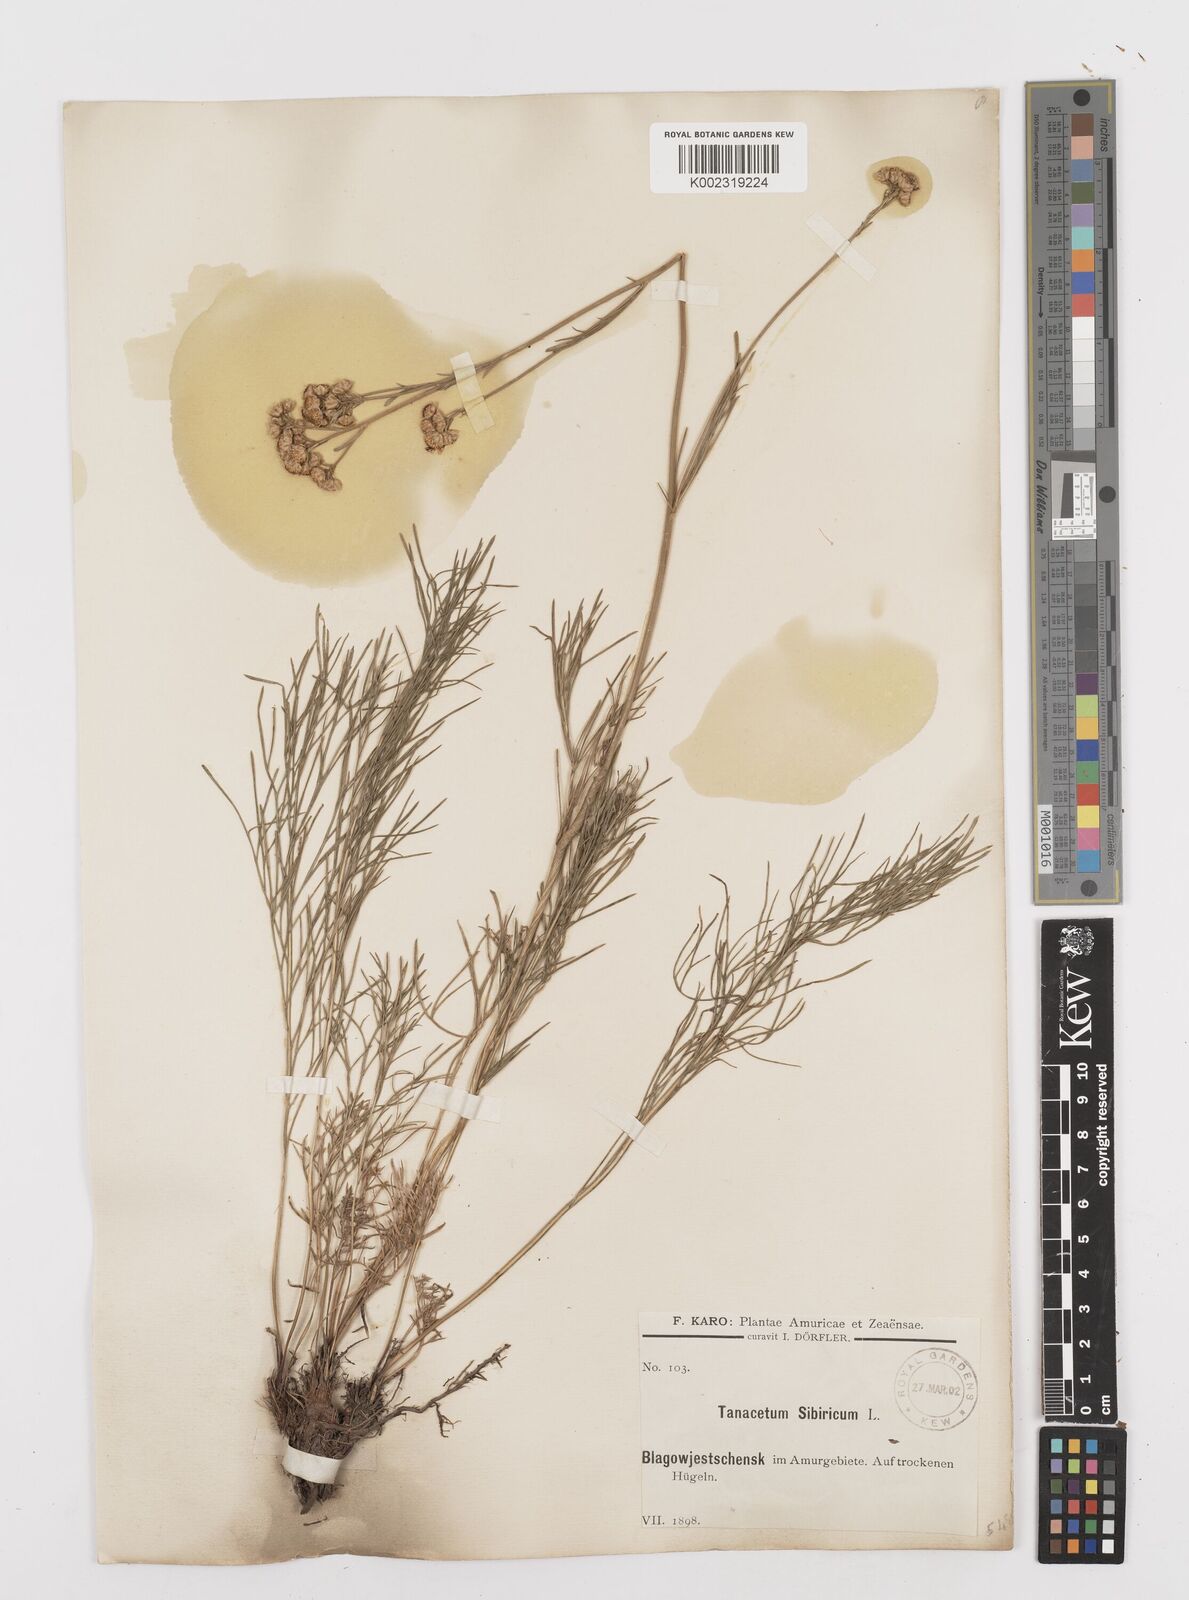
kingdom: Plantae
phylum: Tracheophyta
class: Magnoliopsida
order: Asterales
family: Asteraceae
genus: Filifolium
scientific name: Filifolium sibiricum
